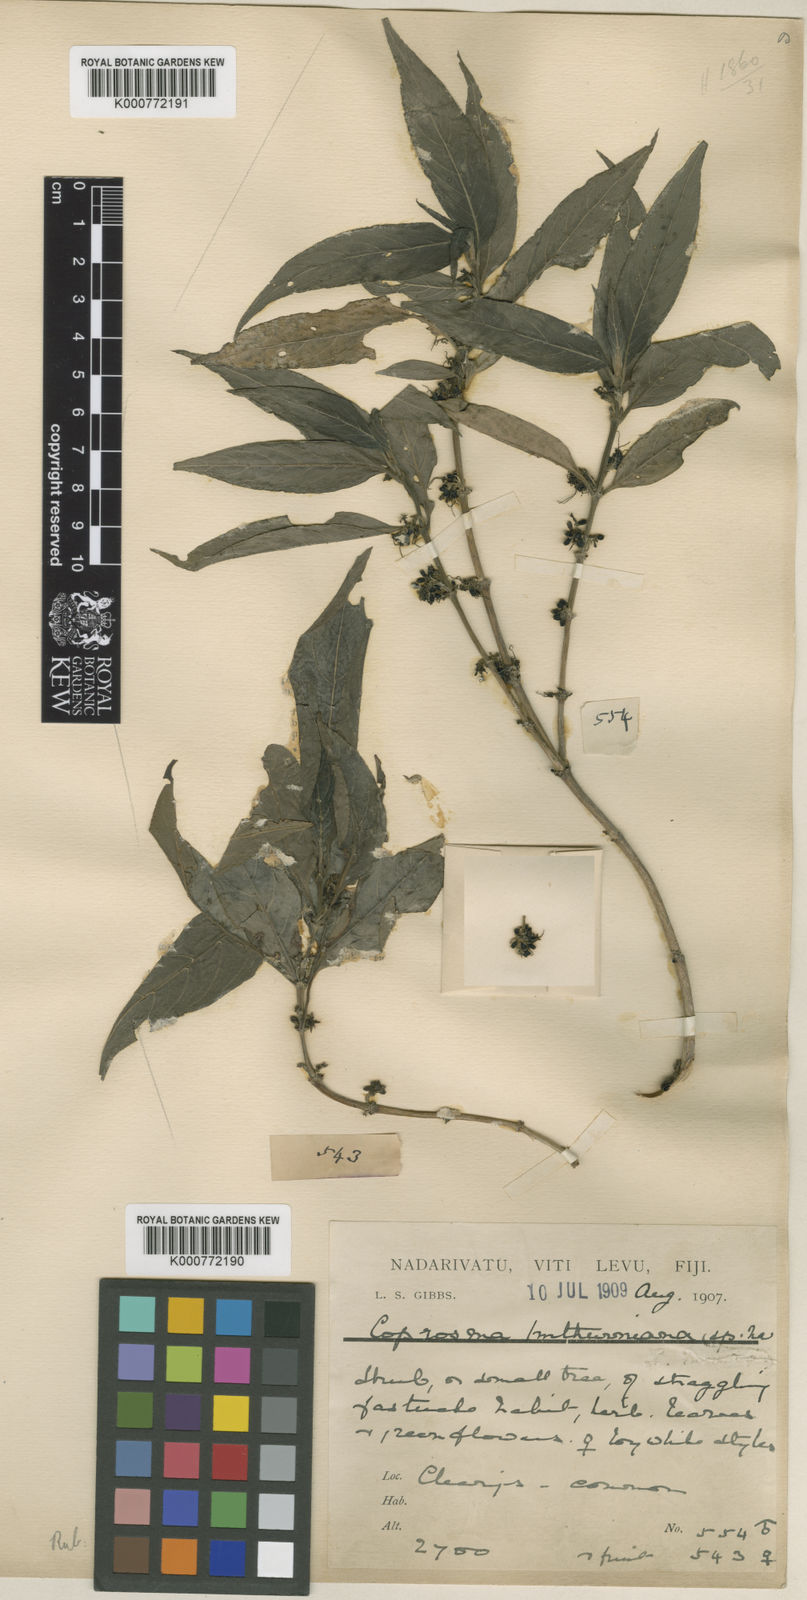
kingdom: Plantae
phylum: Tracheophyta
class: Magnoliopsida
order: Gentianales
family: Rubiaceae
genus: Coprosma
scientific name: Coprosma persicifolia
